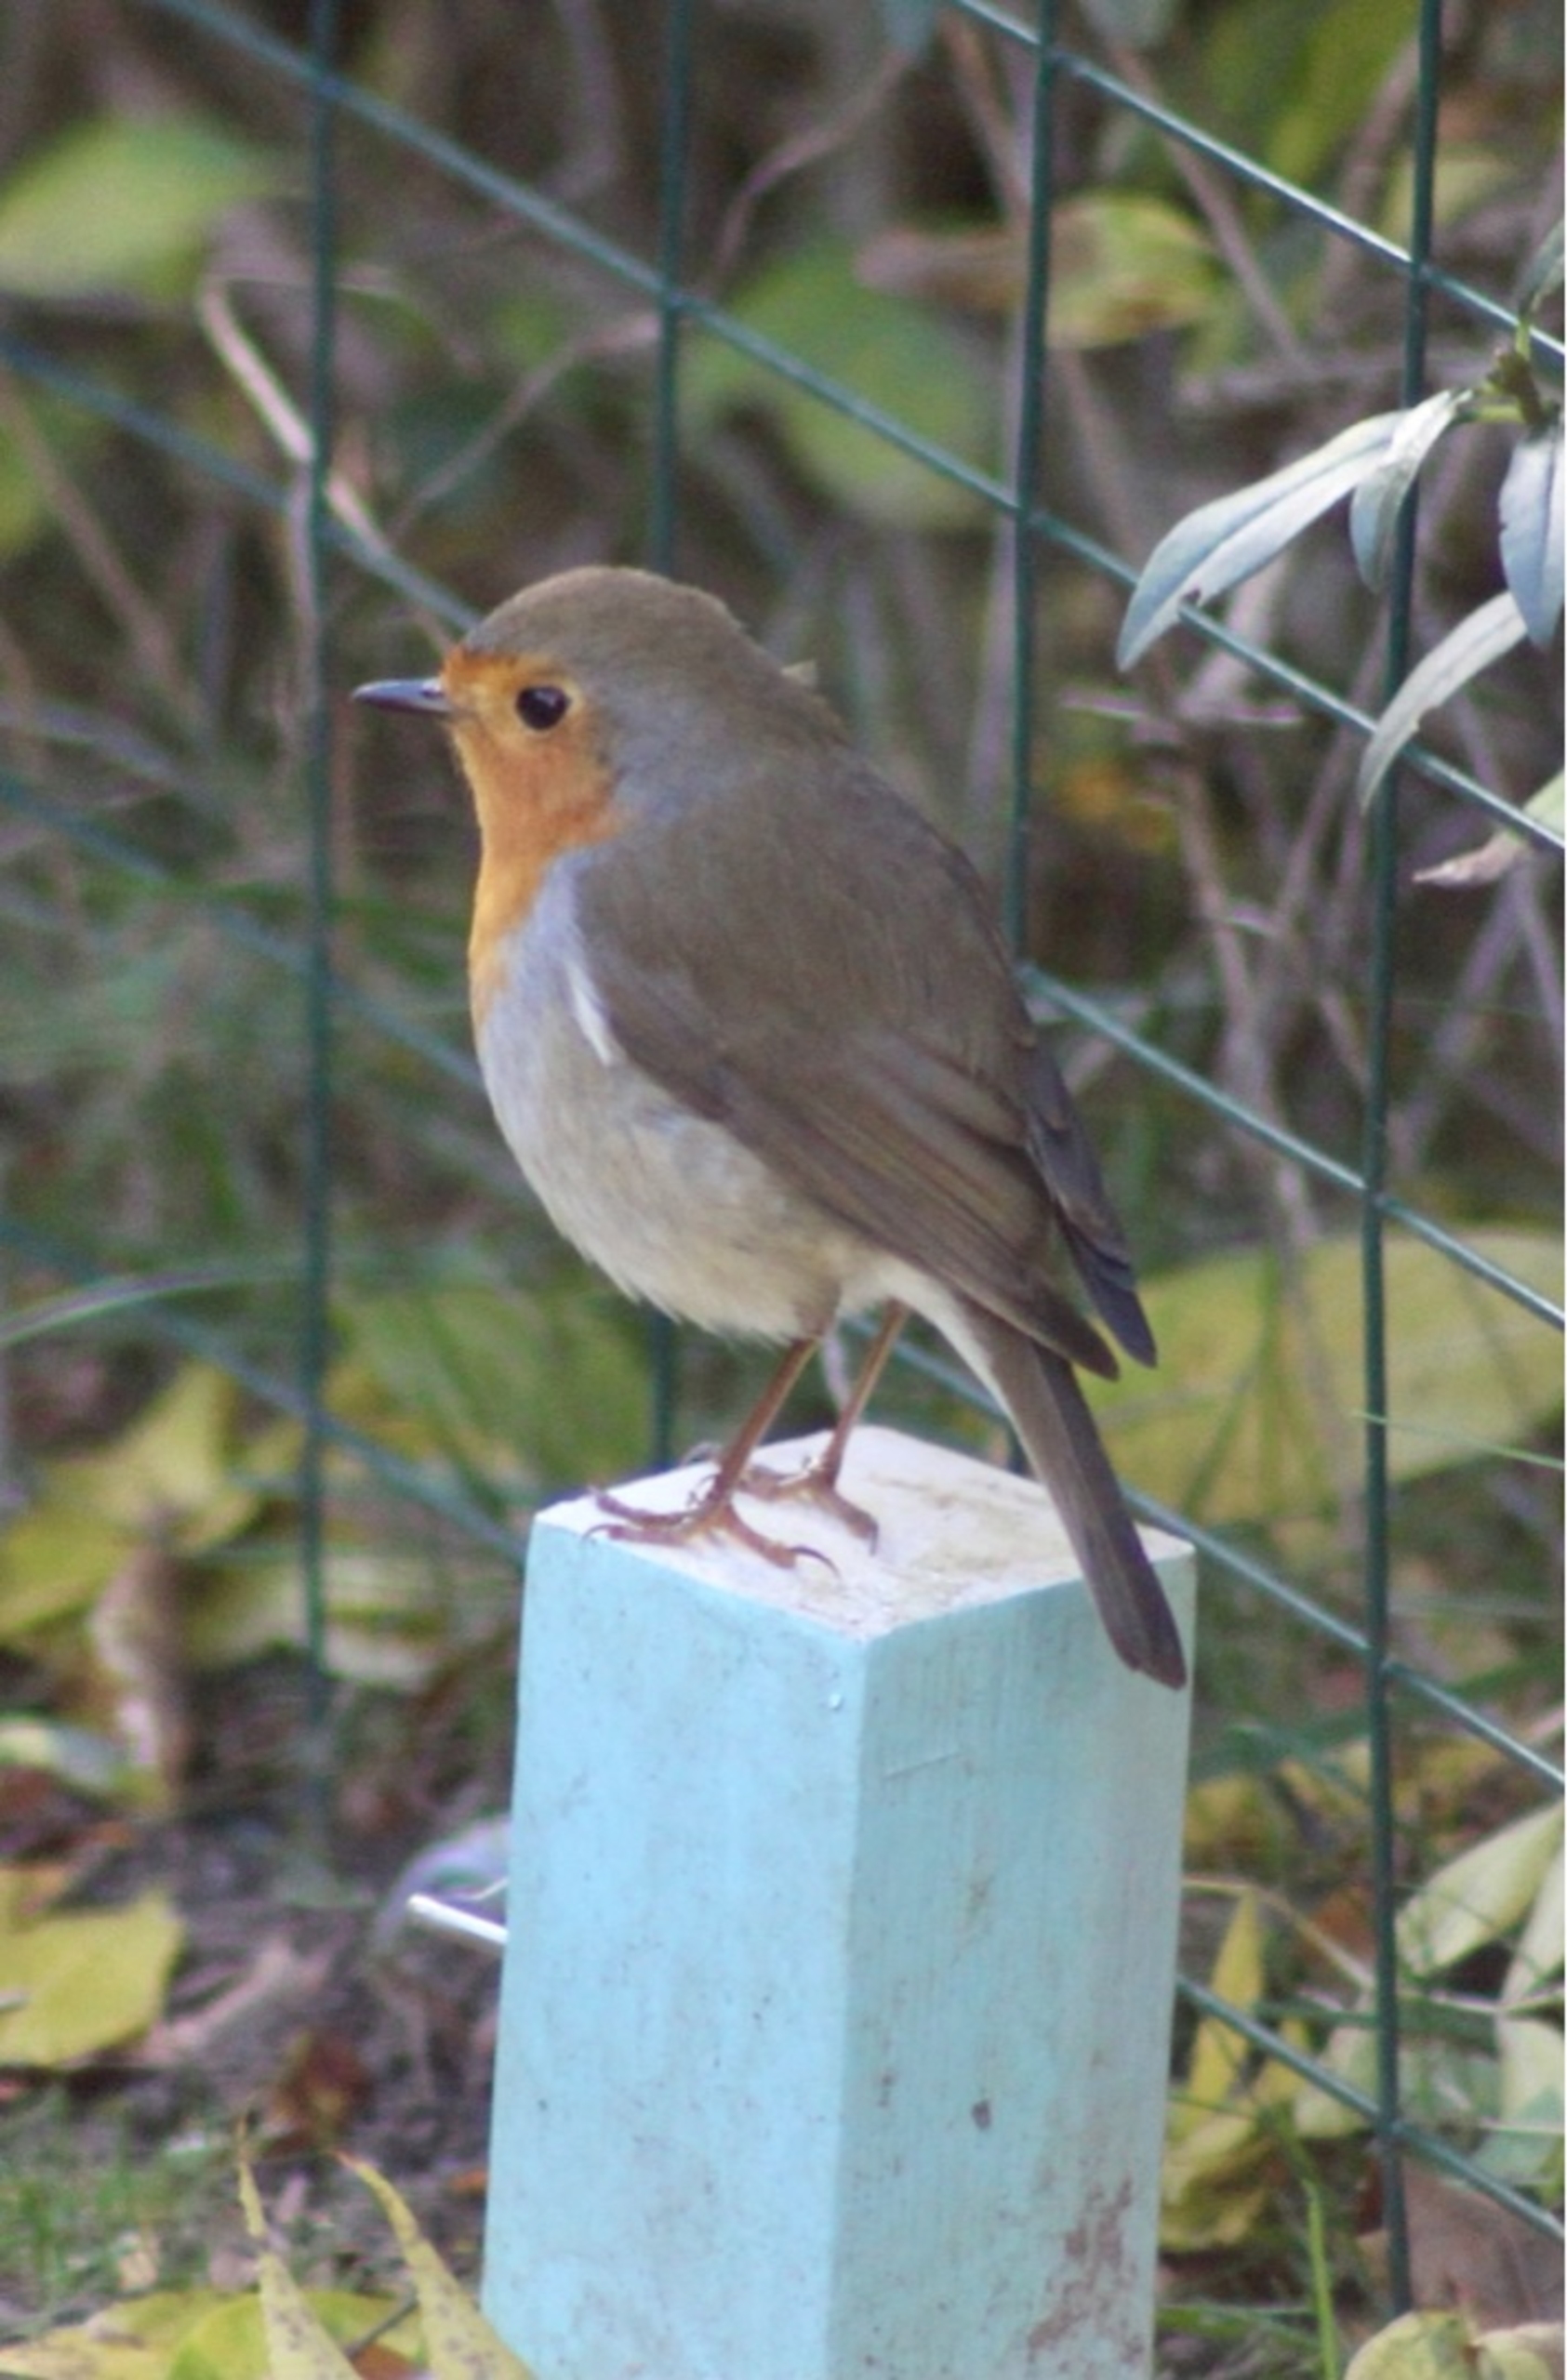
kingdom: Animalia
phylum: Chordata
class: Aves
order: Passeriformes
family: Muscicapidae
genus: Erithacus
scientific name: Erithacus rubecula
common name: Rødhals/rødkælk
